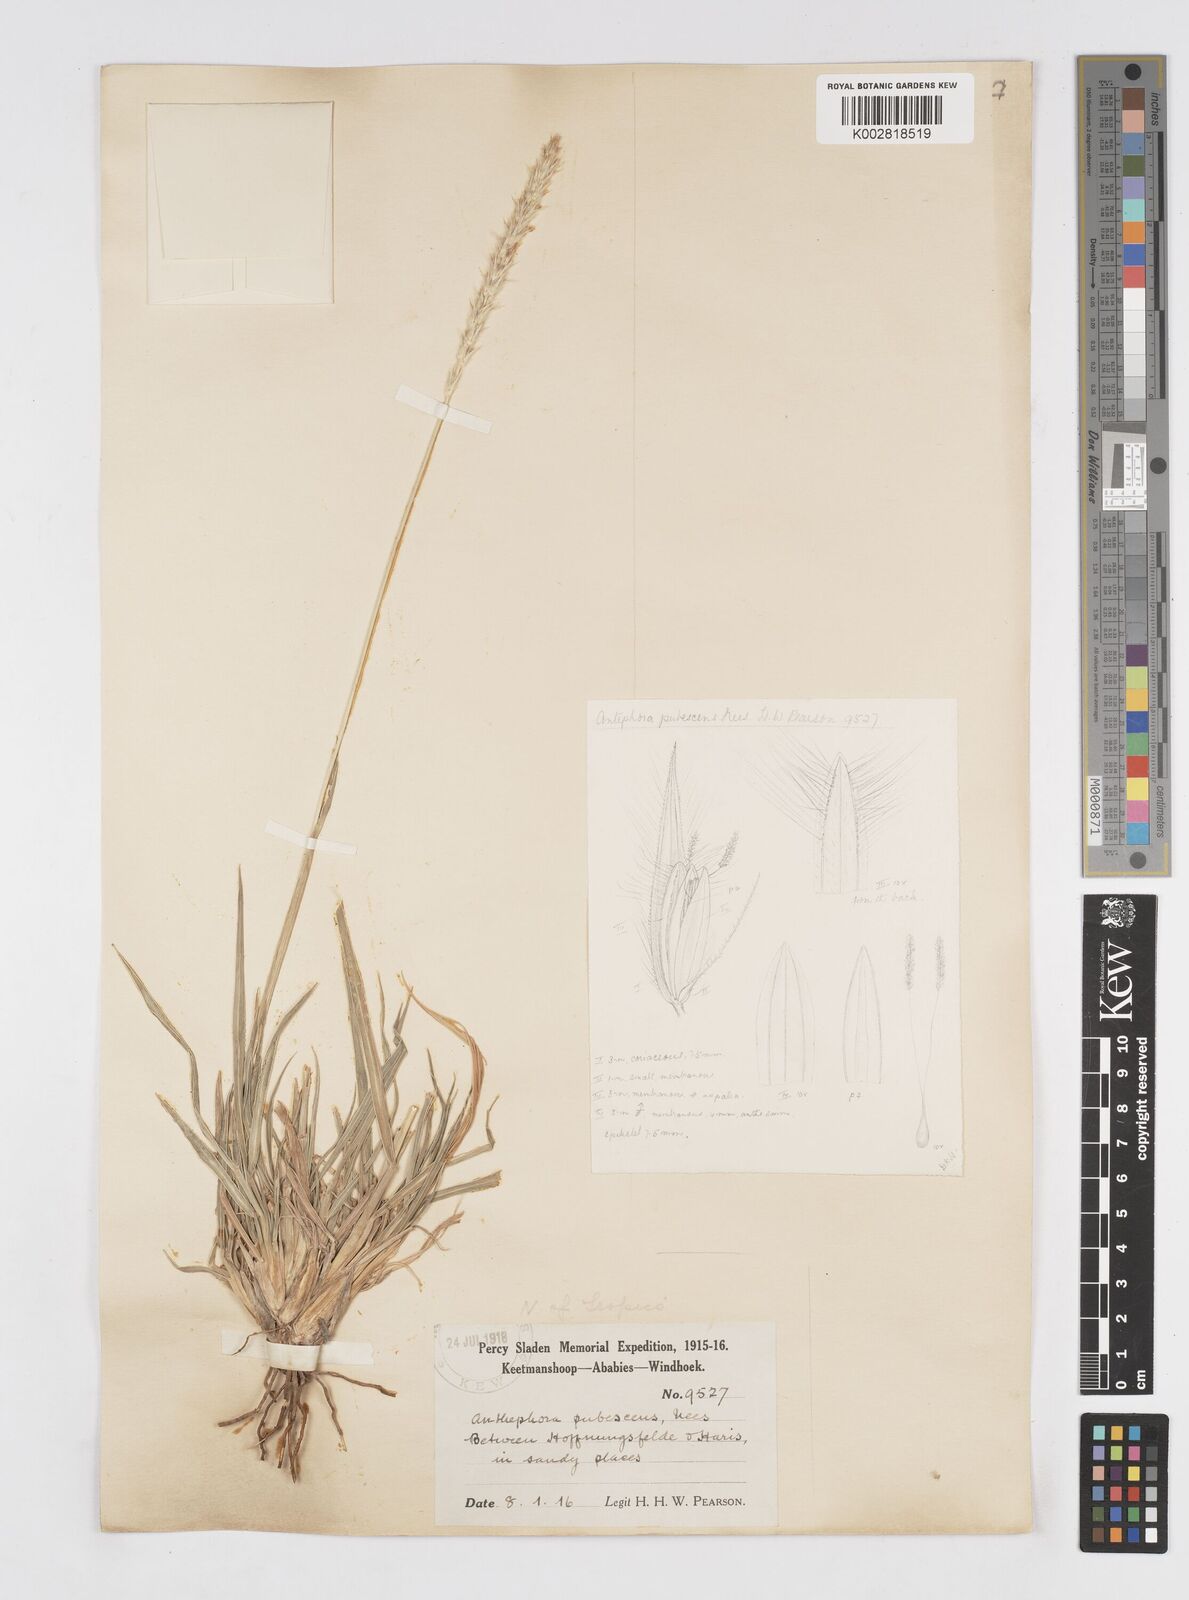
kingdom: Plantae
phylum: Tracheophyta
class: Liliopsida
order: Poales
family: Poaceae
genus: Anthephora
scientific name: Anthephora pubescens
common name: Wool grass
